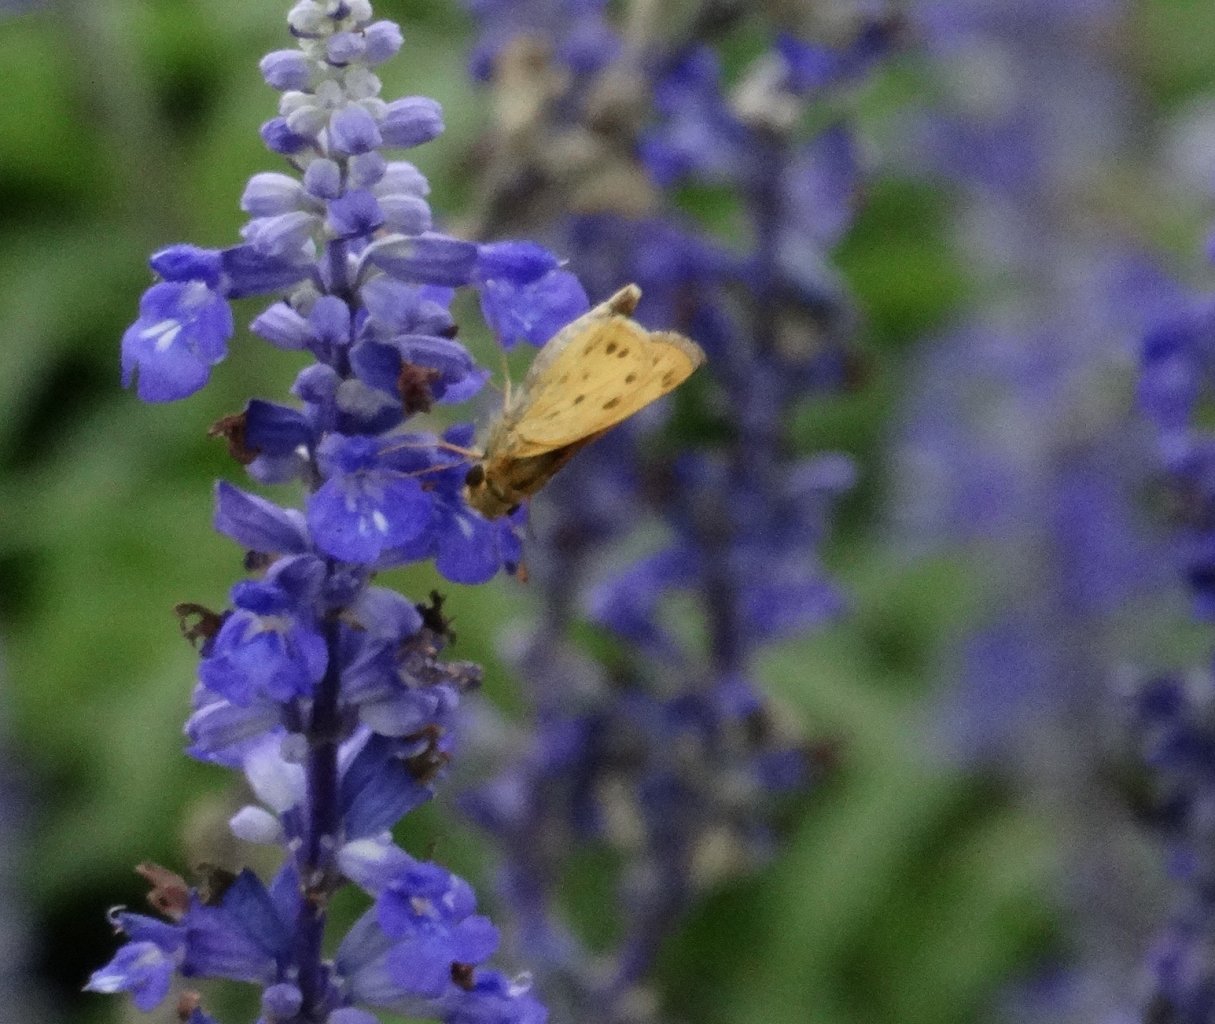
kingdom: Animalia
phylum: Arthropoda
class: Insecta
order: Lepidoptera
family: Hesperiidae
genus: Hylephila
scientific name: Hylephila phyleus
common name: Fiery Skipper
